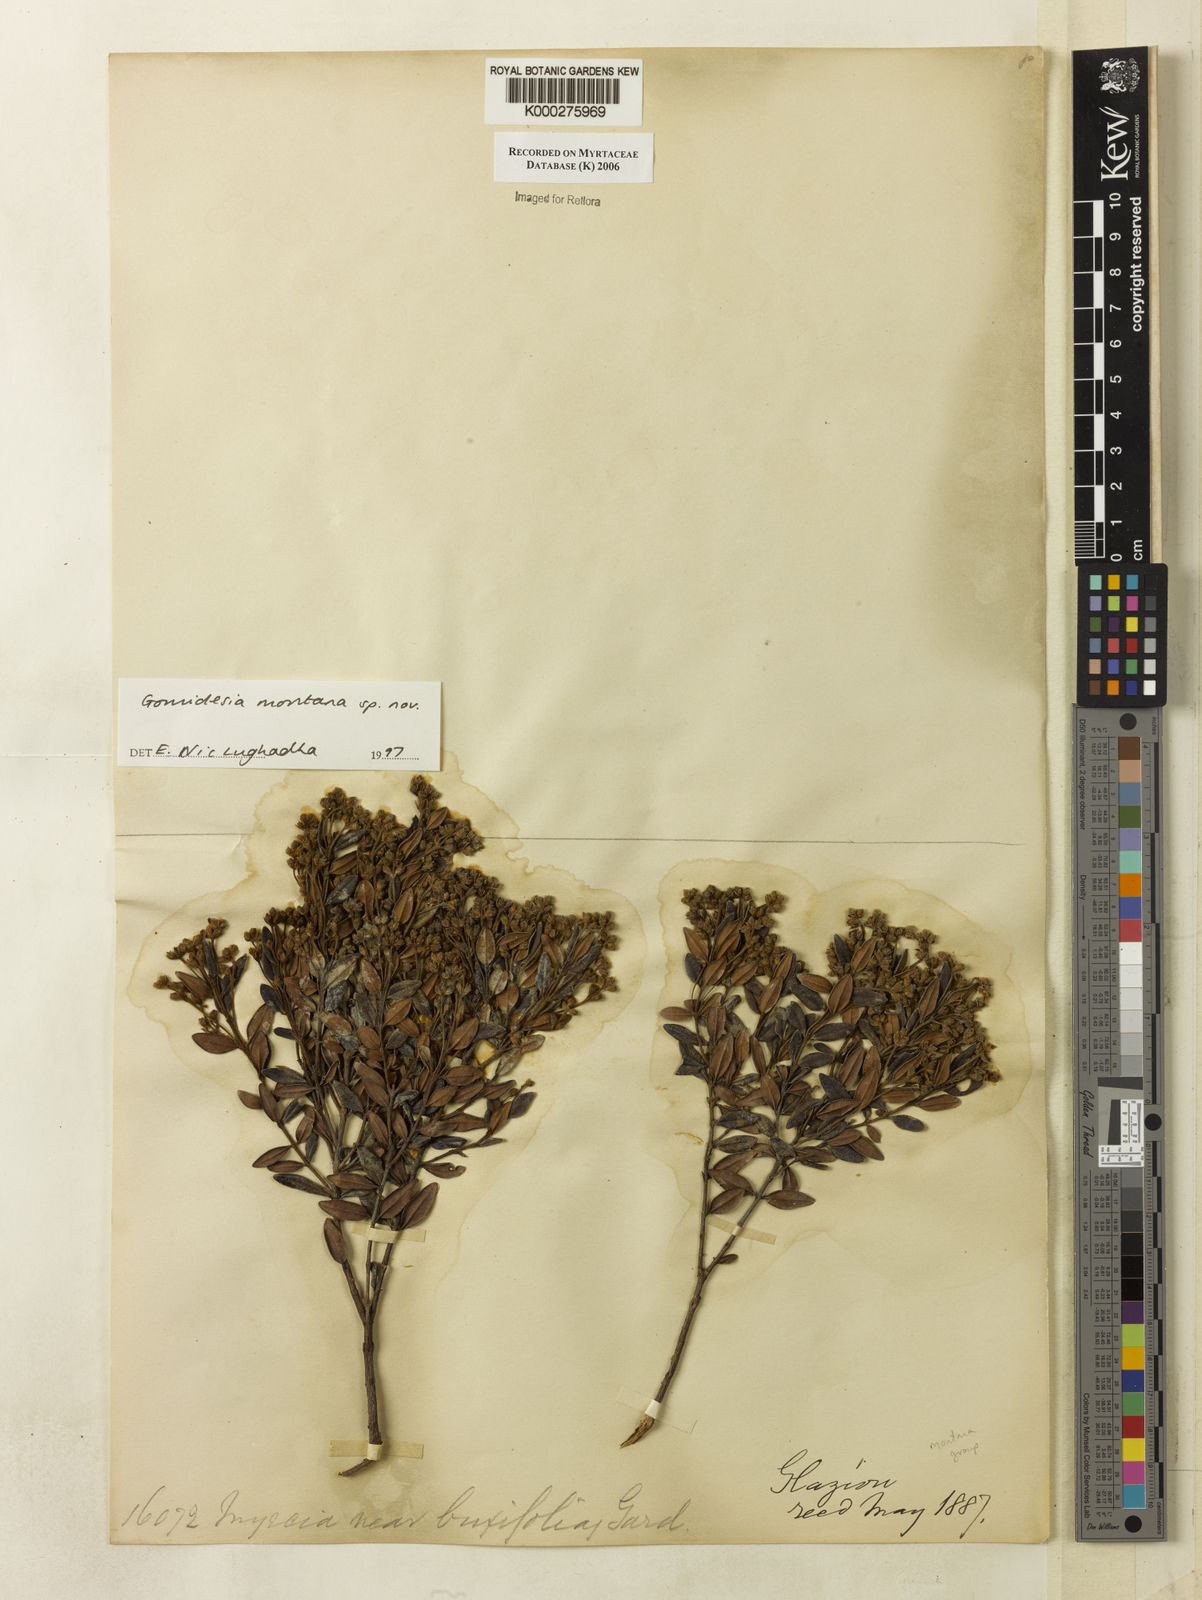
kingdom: Plantae
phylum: Tracheophyta
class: Magnoliopsida
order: Myrtales
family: Myrtaceae
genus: Myrcia
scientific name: Myrcia
